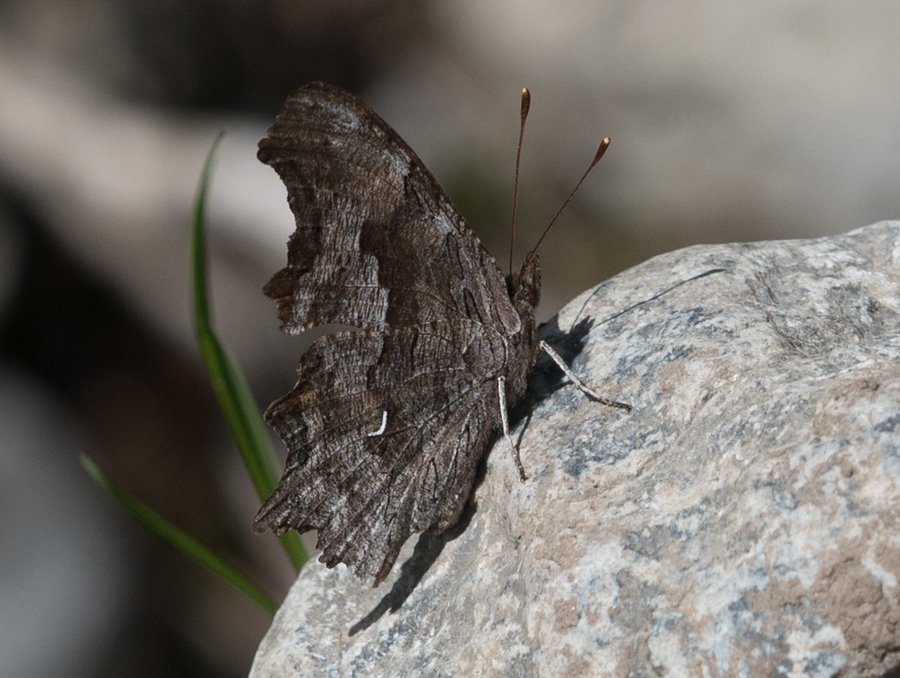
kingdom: Animalia
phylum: Arthropoda
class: Insecta
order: Lepidoptera
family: Nymphalidae
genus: Polygonia
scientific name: Polygonia gracilis
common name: Hoary Comma
